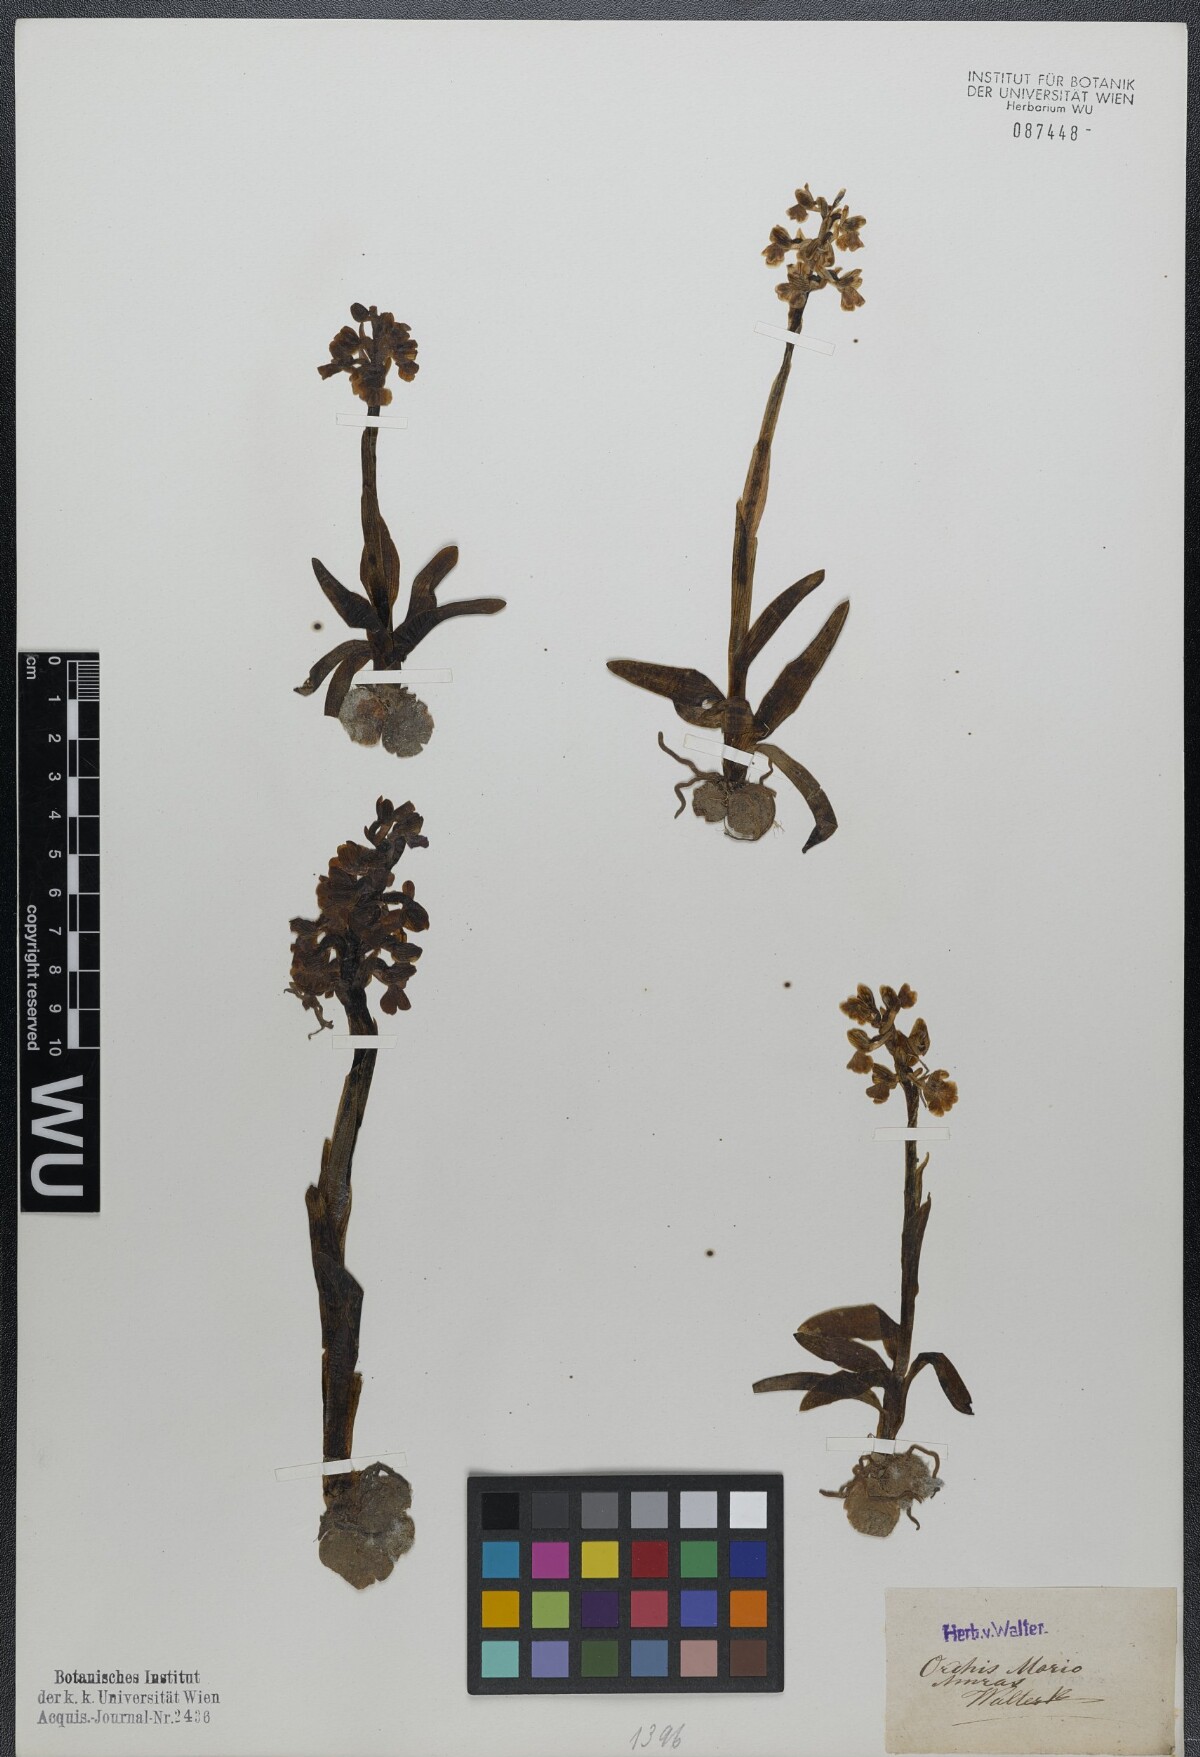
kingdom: Plantae
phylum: Tracheophyta
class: Liliopsida
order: Asparagales
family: Orchidaceae
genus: Anacamptis
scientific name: Anacamptis morio
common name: Green-winged orchid
